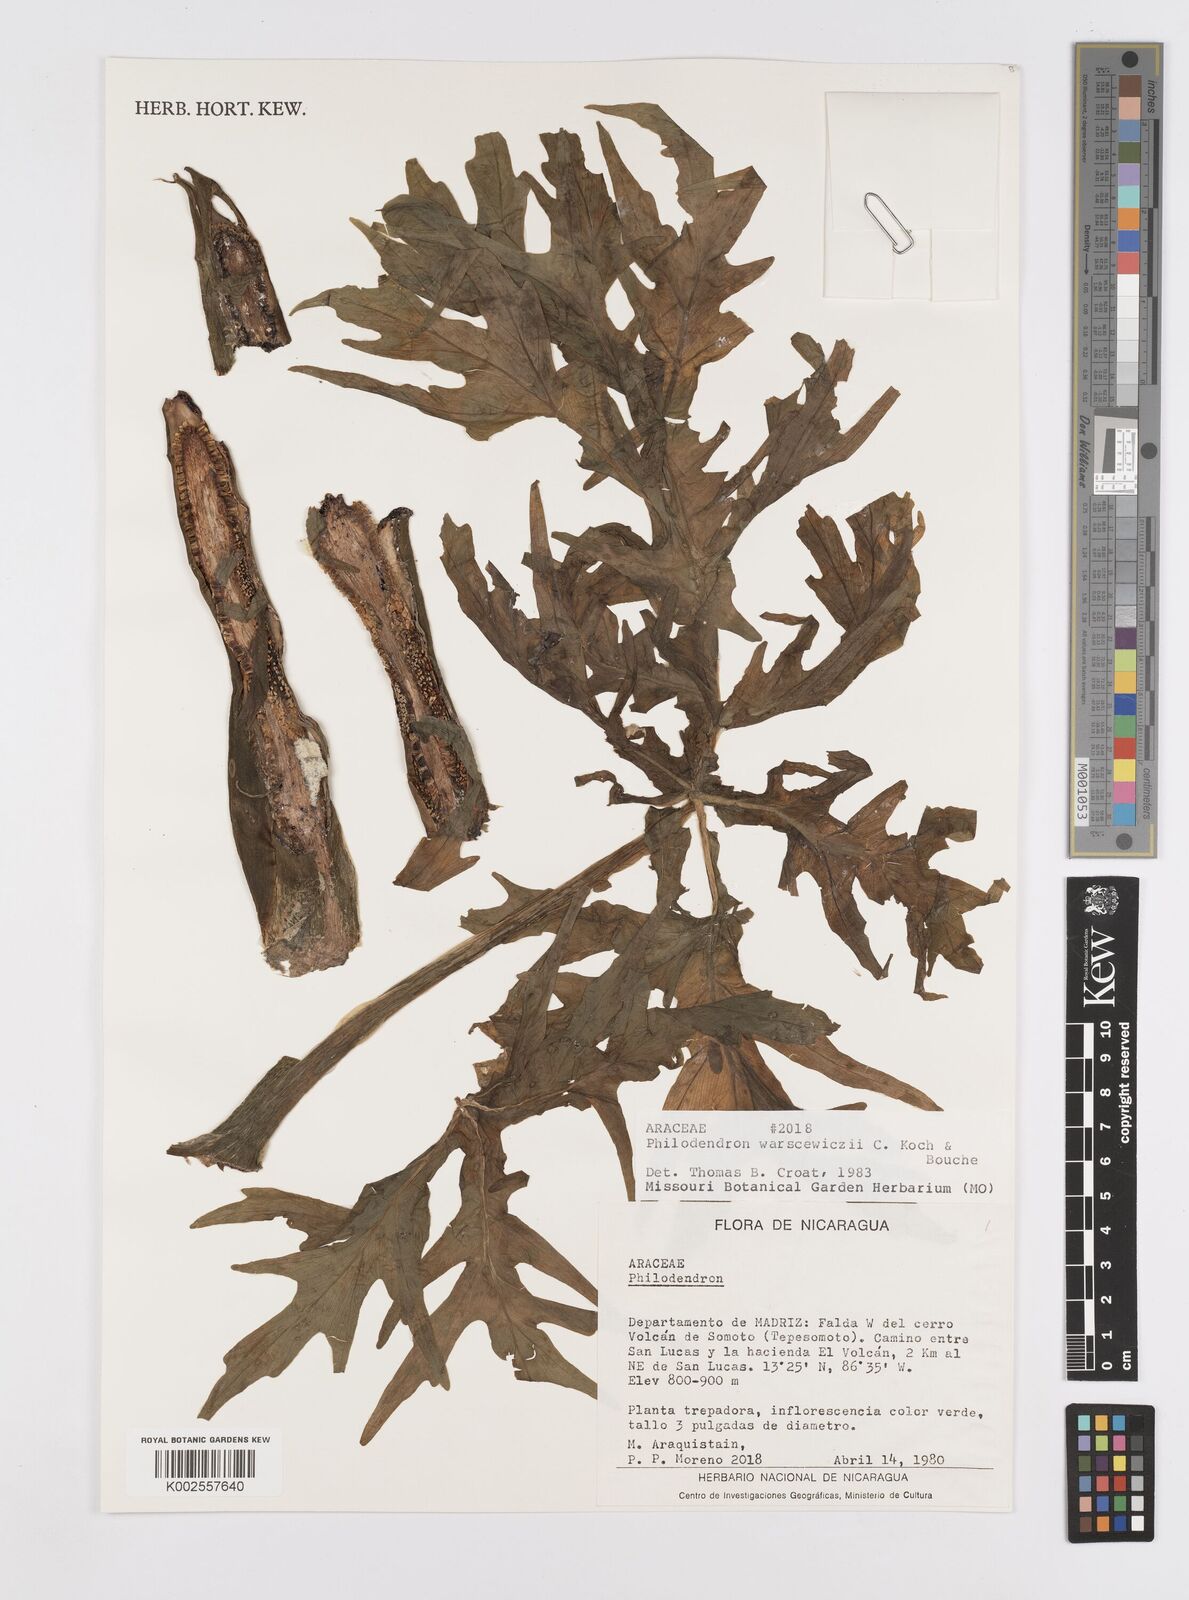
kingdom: Plantae
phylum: Tracheophyta
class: Liliopsida
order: Alismatales
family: Araceae
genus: Philodendron
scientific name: Philodendron warszewiczii
